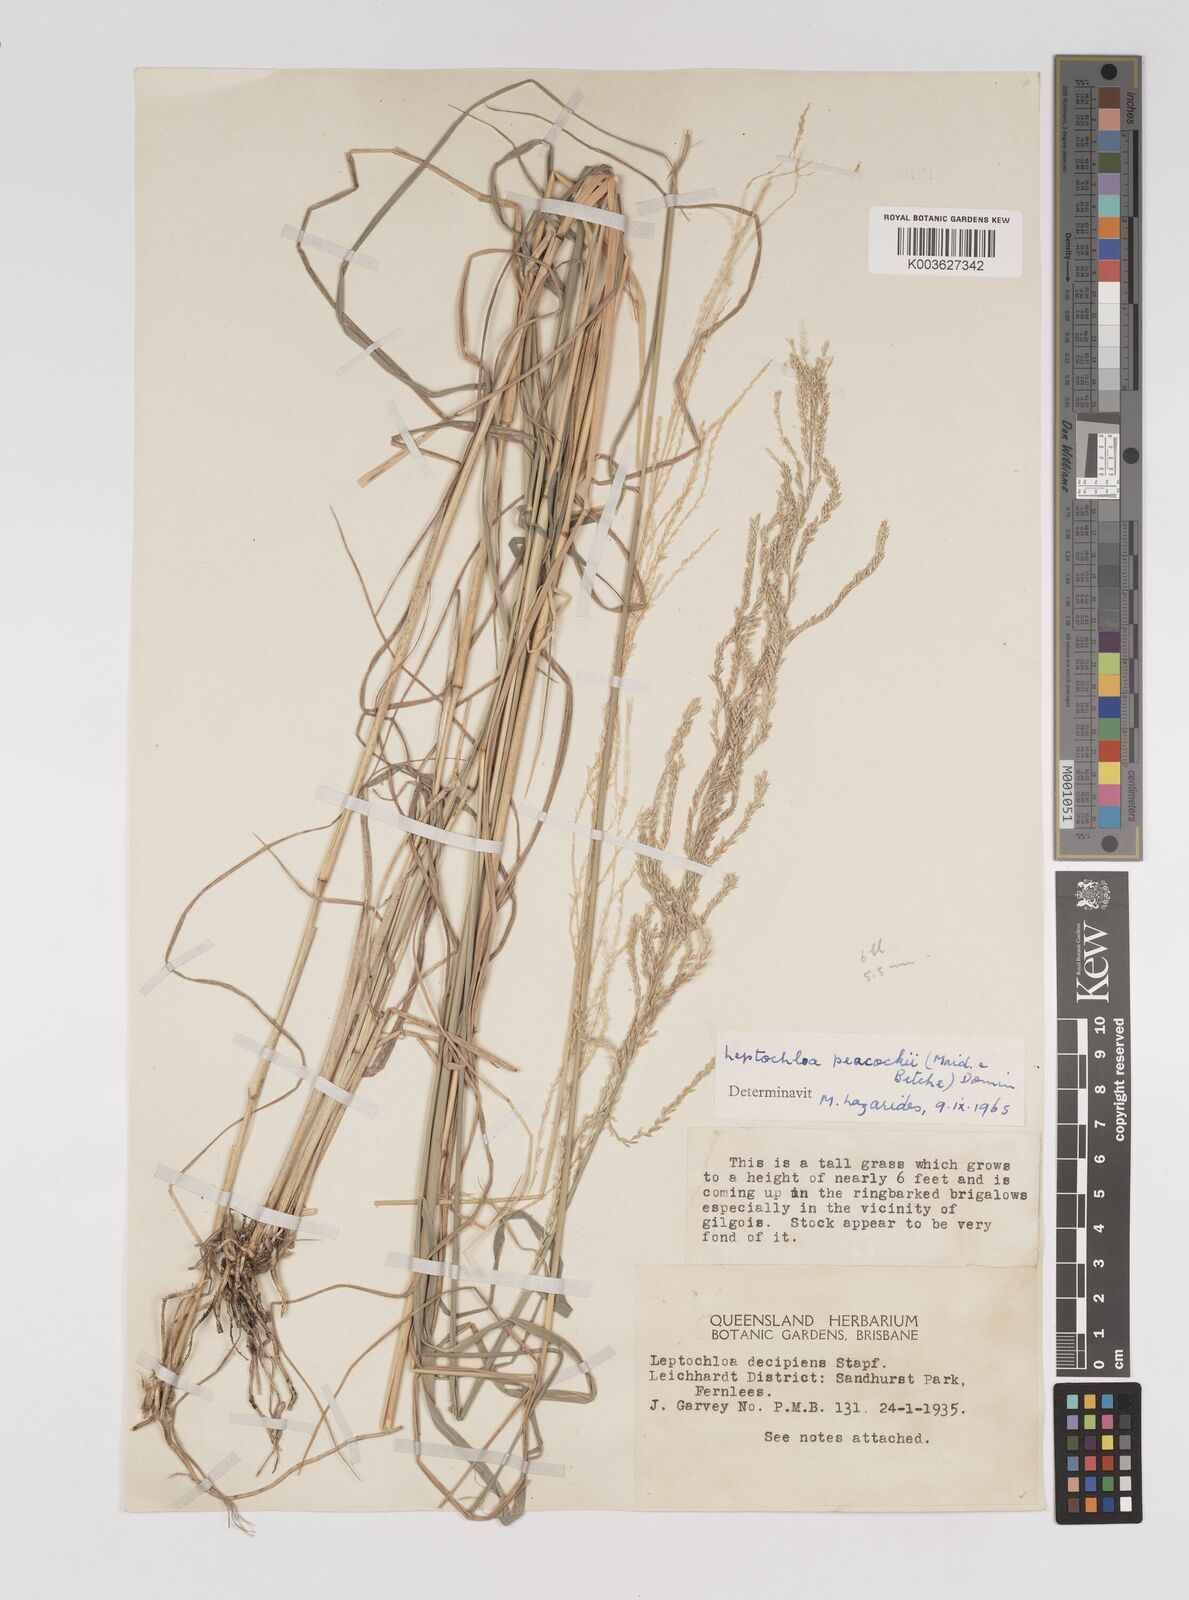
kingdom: Plantae
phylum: Tracheophyta
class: Liliopsida
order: Poales
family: Poaceae
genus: Leptochloa
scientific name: Leptochloa decipiens
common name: Australian sprangletop
